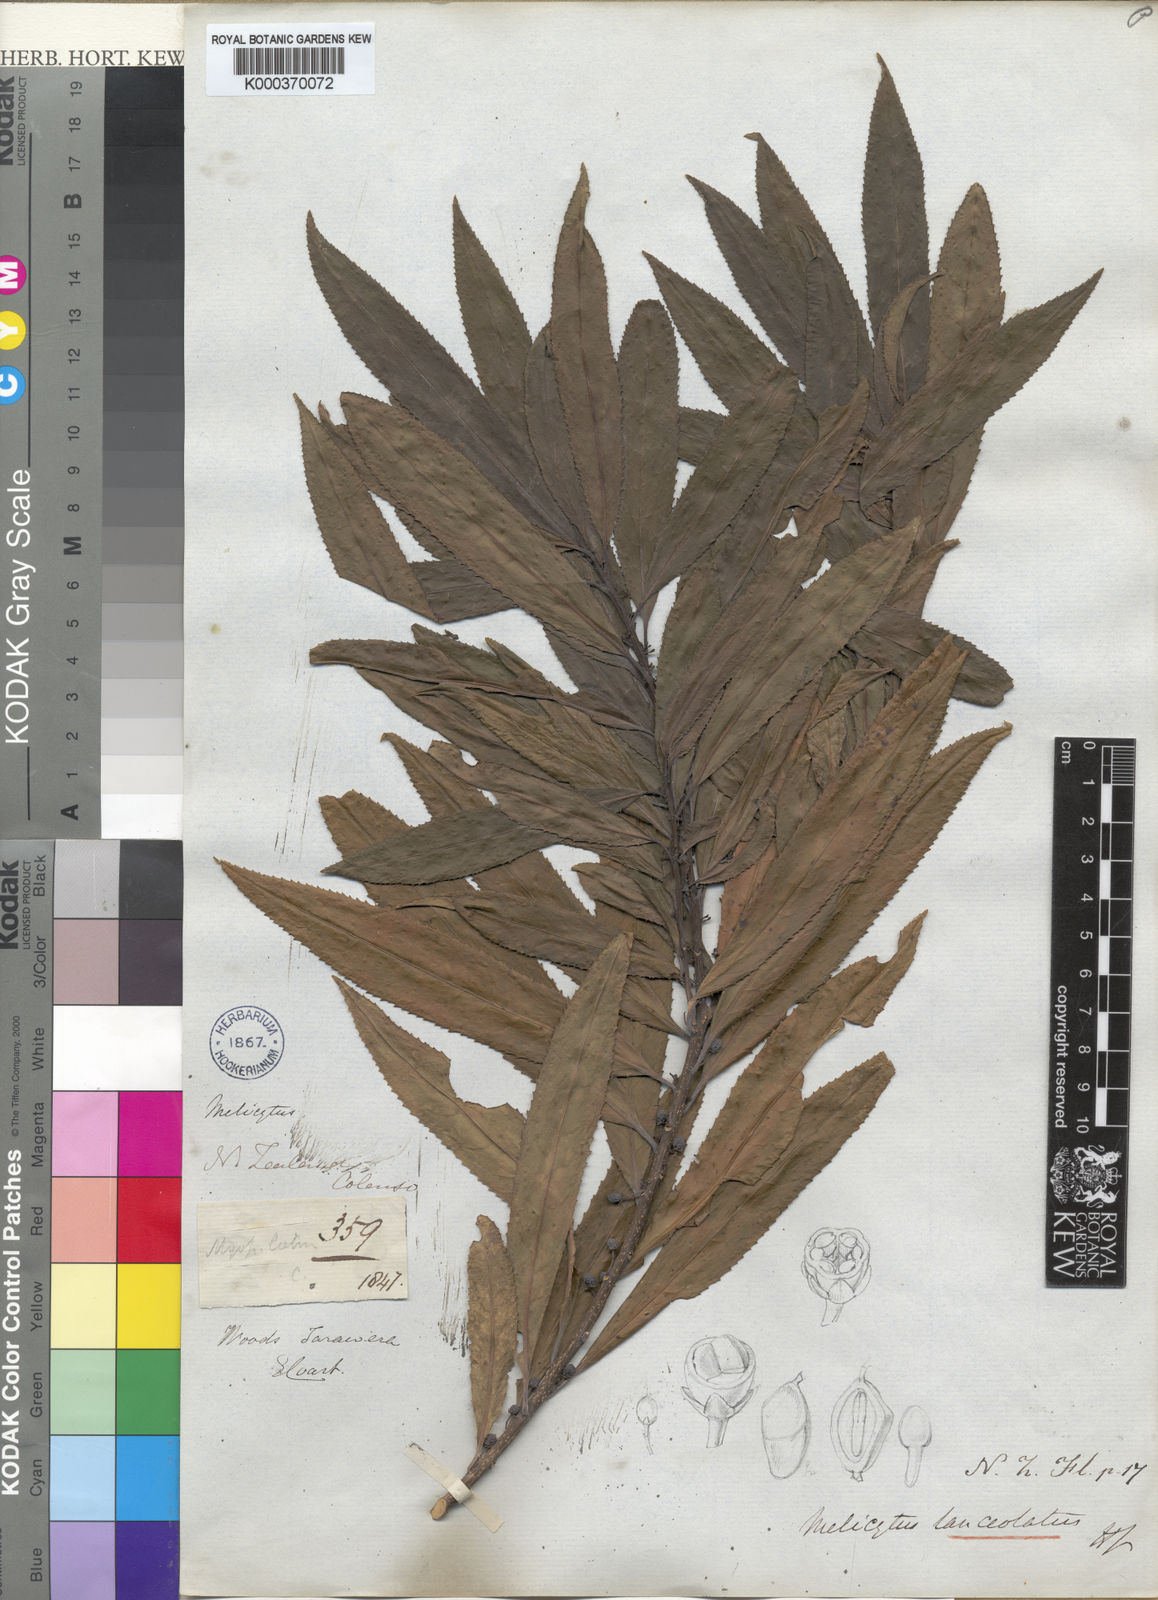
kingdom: Plantae
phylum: Tracheophyta
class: Magnoliopsida
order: Malpighiales
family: Violaceae
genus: Melicytus
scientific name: Melicytus lanceolatus
